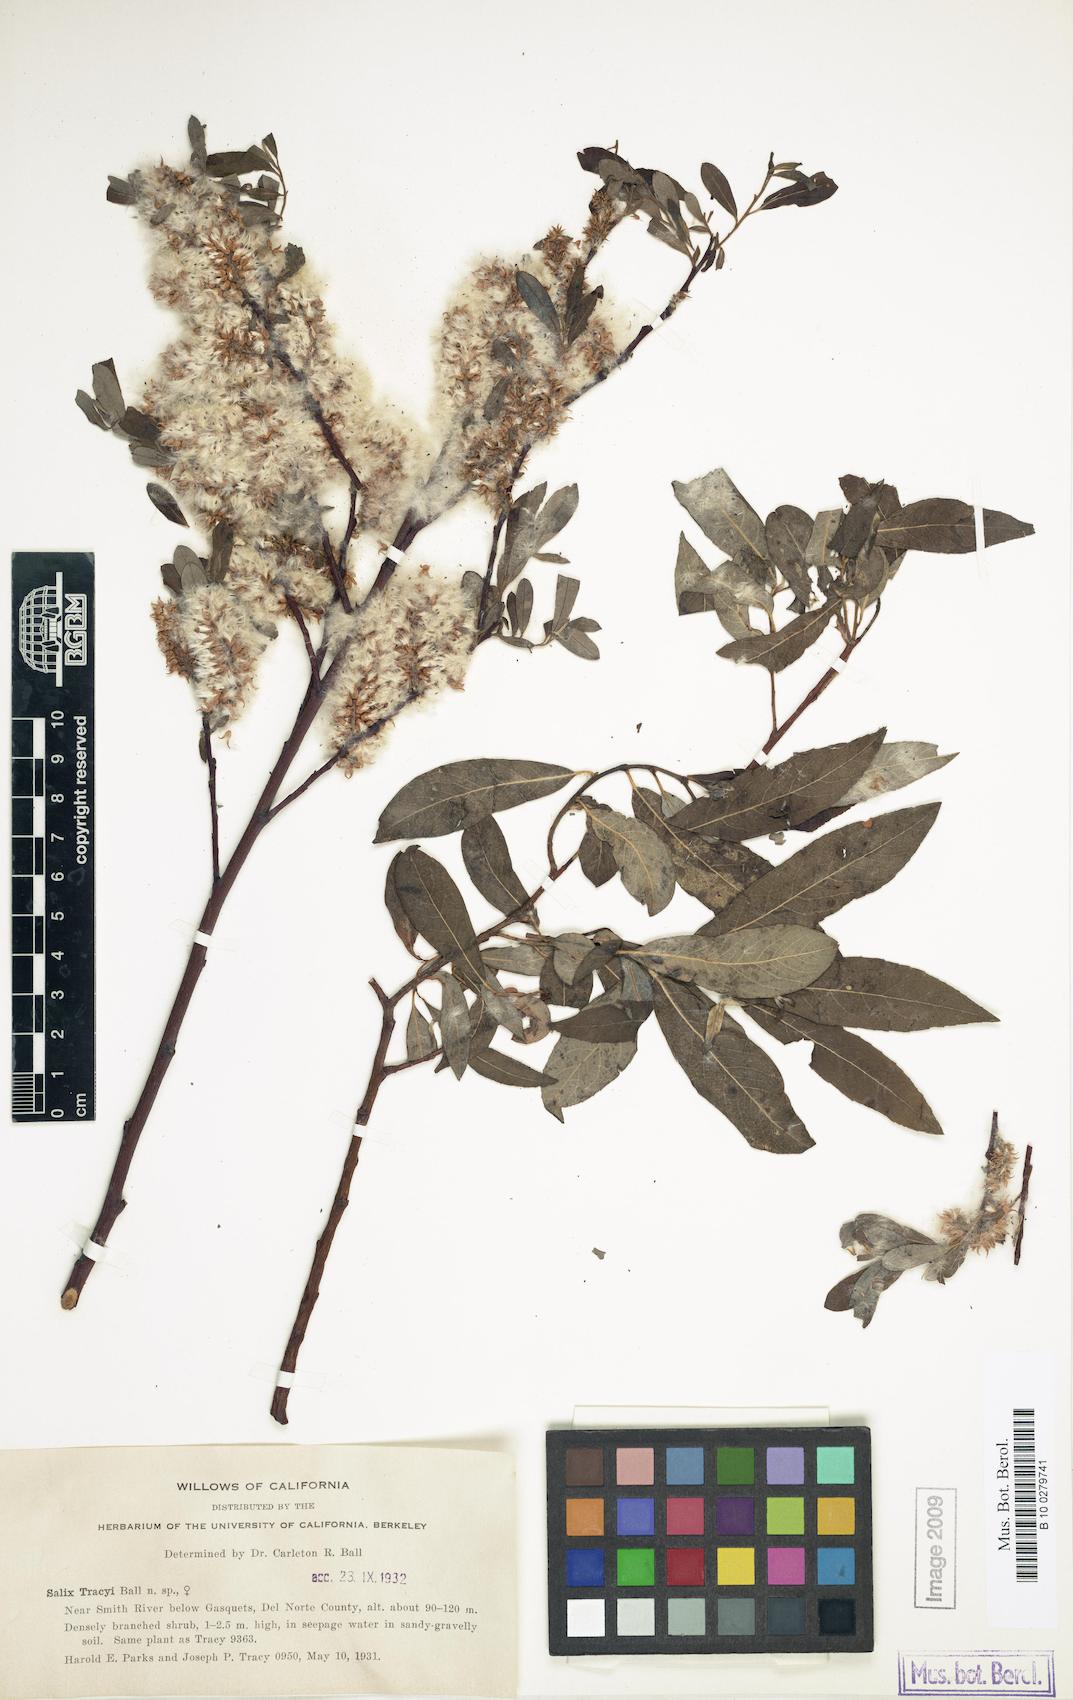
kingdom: Plantae
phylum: Tracheophyta
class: Magnoliopsida
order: Malpighiales
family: Salicaceae
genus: Salix
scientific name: Salix tracyi
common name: Tracy’s willow
